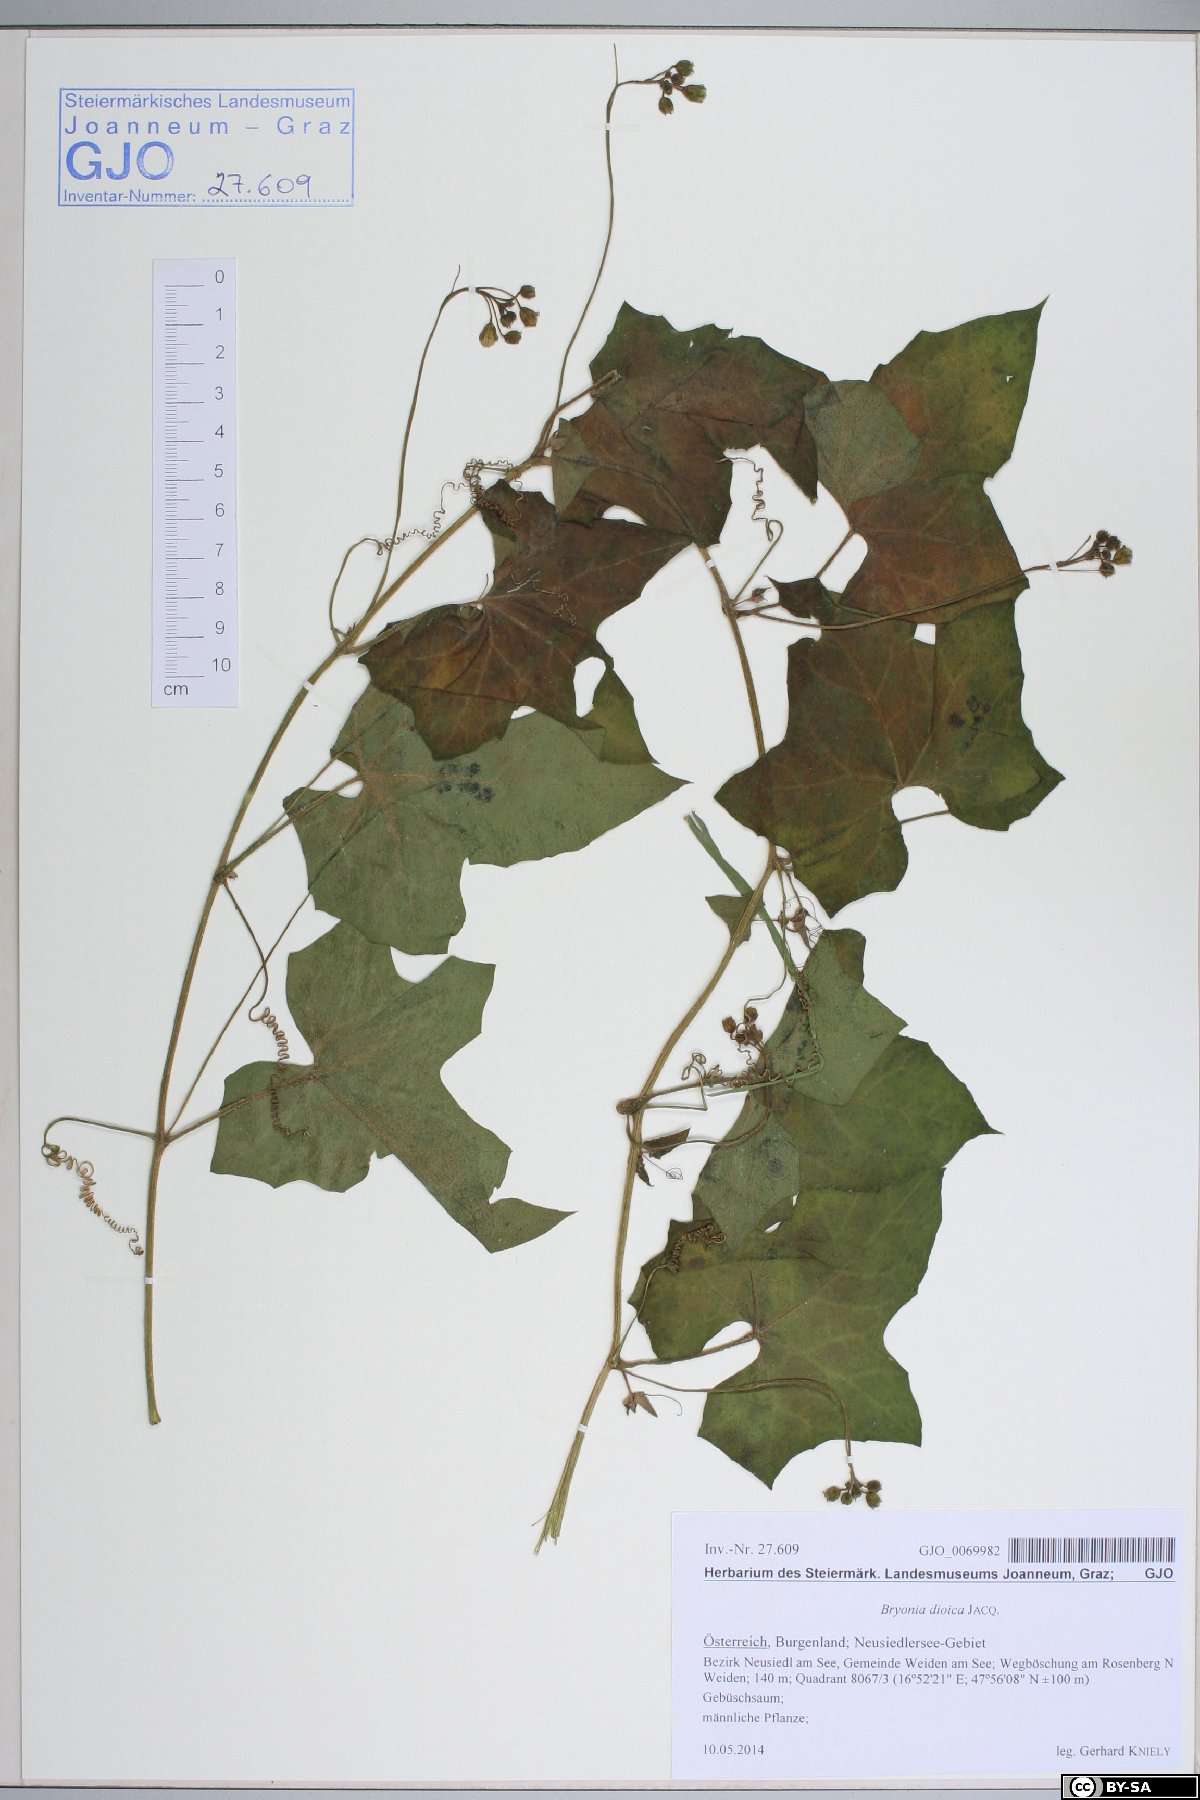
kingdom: Plantae
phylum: Tracheophyta
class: Magnoliopsida
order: Cucurbitales
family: Cucurbitaceae
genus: Bryonia
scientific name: Bryonia dioica
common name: White bryony
